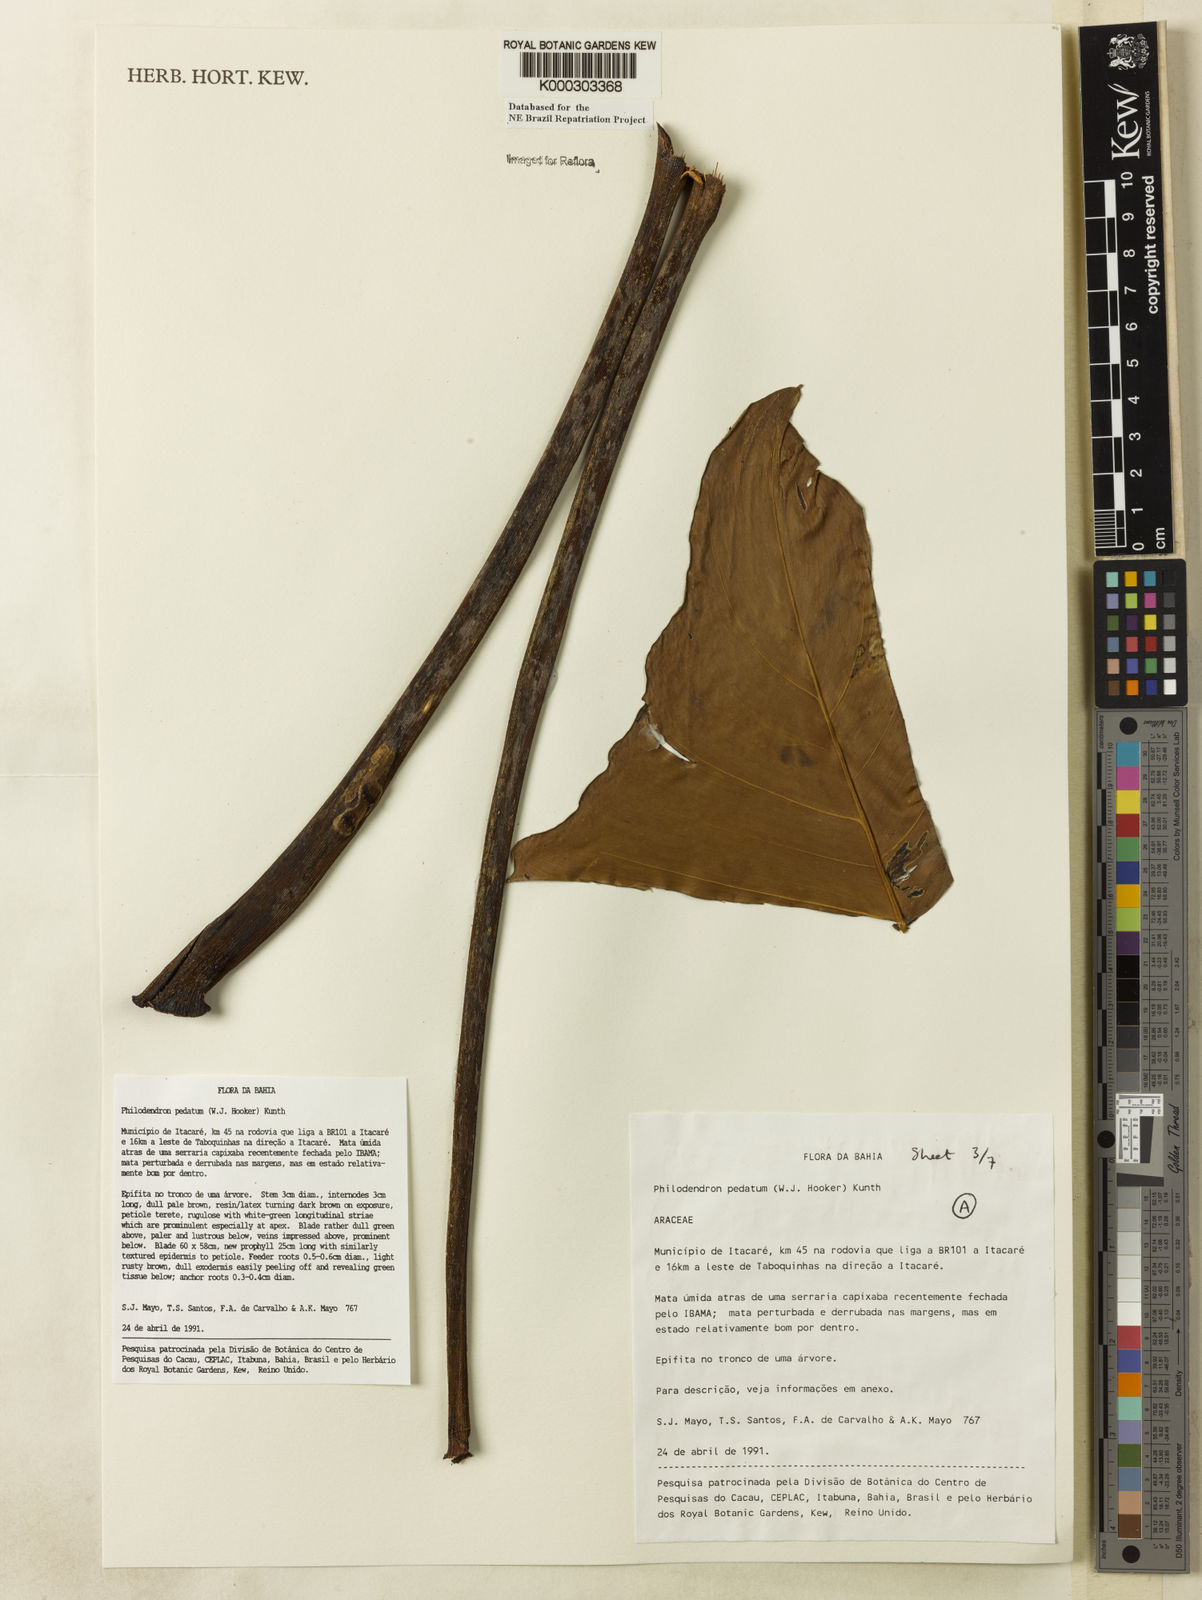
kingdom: Plantae
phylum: Tracheophyta
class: Liliopsida
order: Alismatales
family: Araceae
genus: Philodendron
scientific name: Philodendron pedatum
